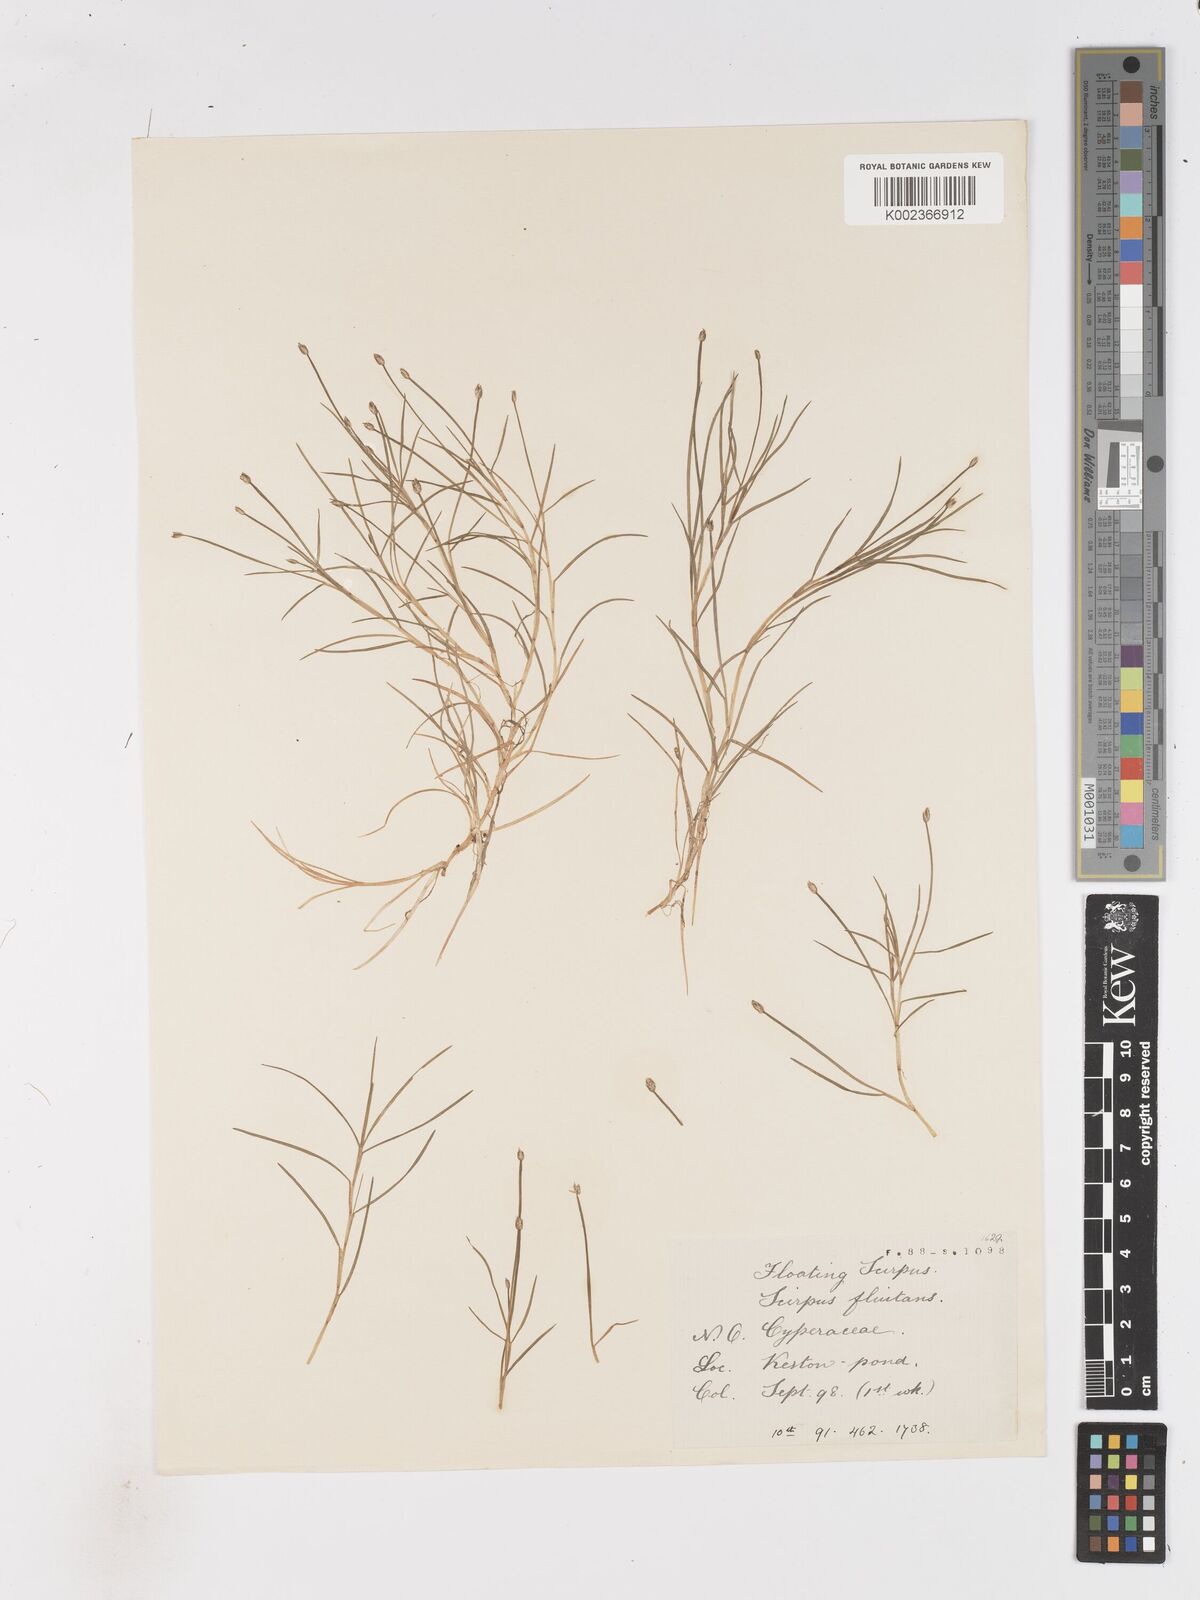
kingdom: Plantae
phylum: Tracheophyta
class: Liliopsida
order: Poales
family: Cyperaceae
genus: Isolepis
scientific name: Isolepis fluitans
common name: Floating club-rush
